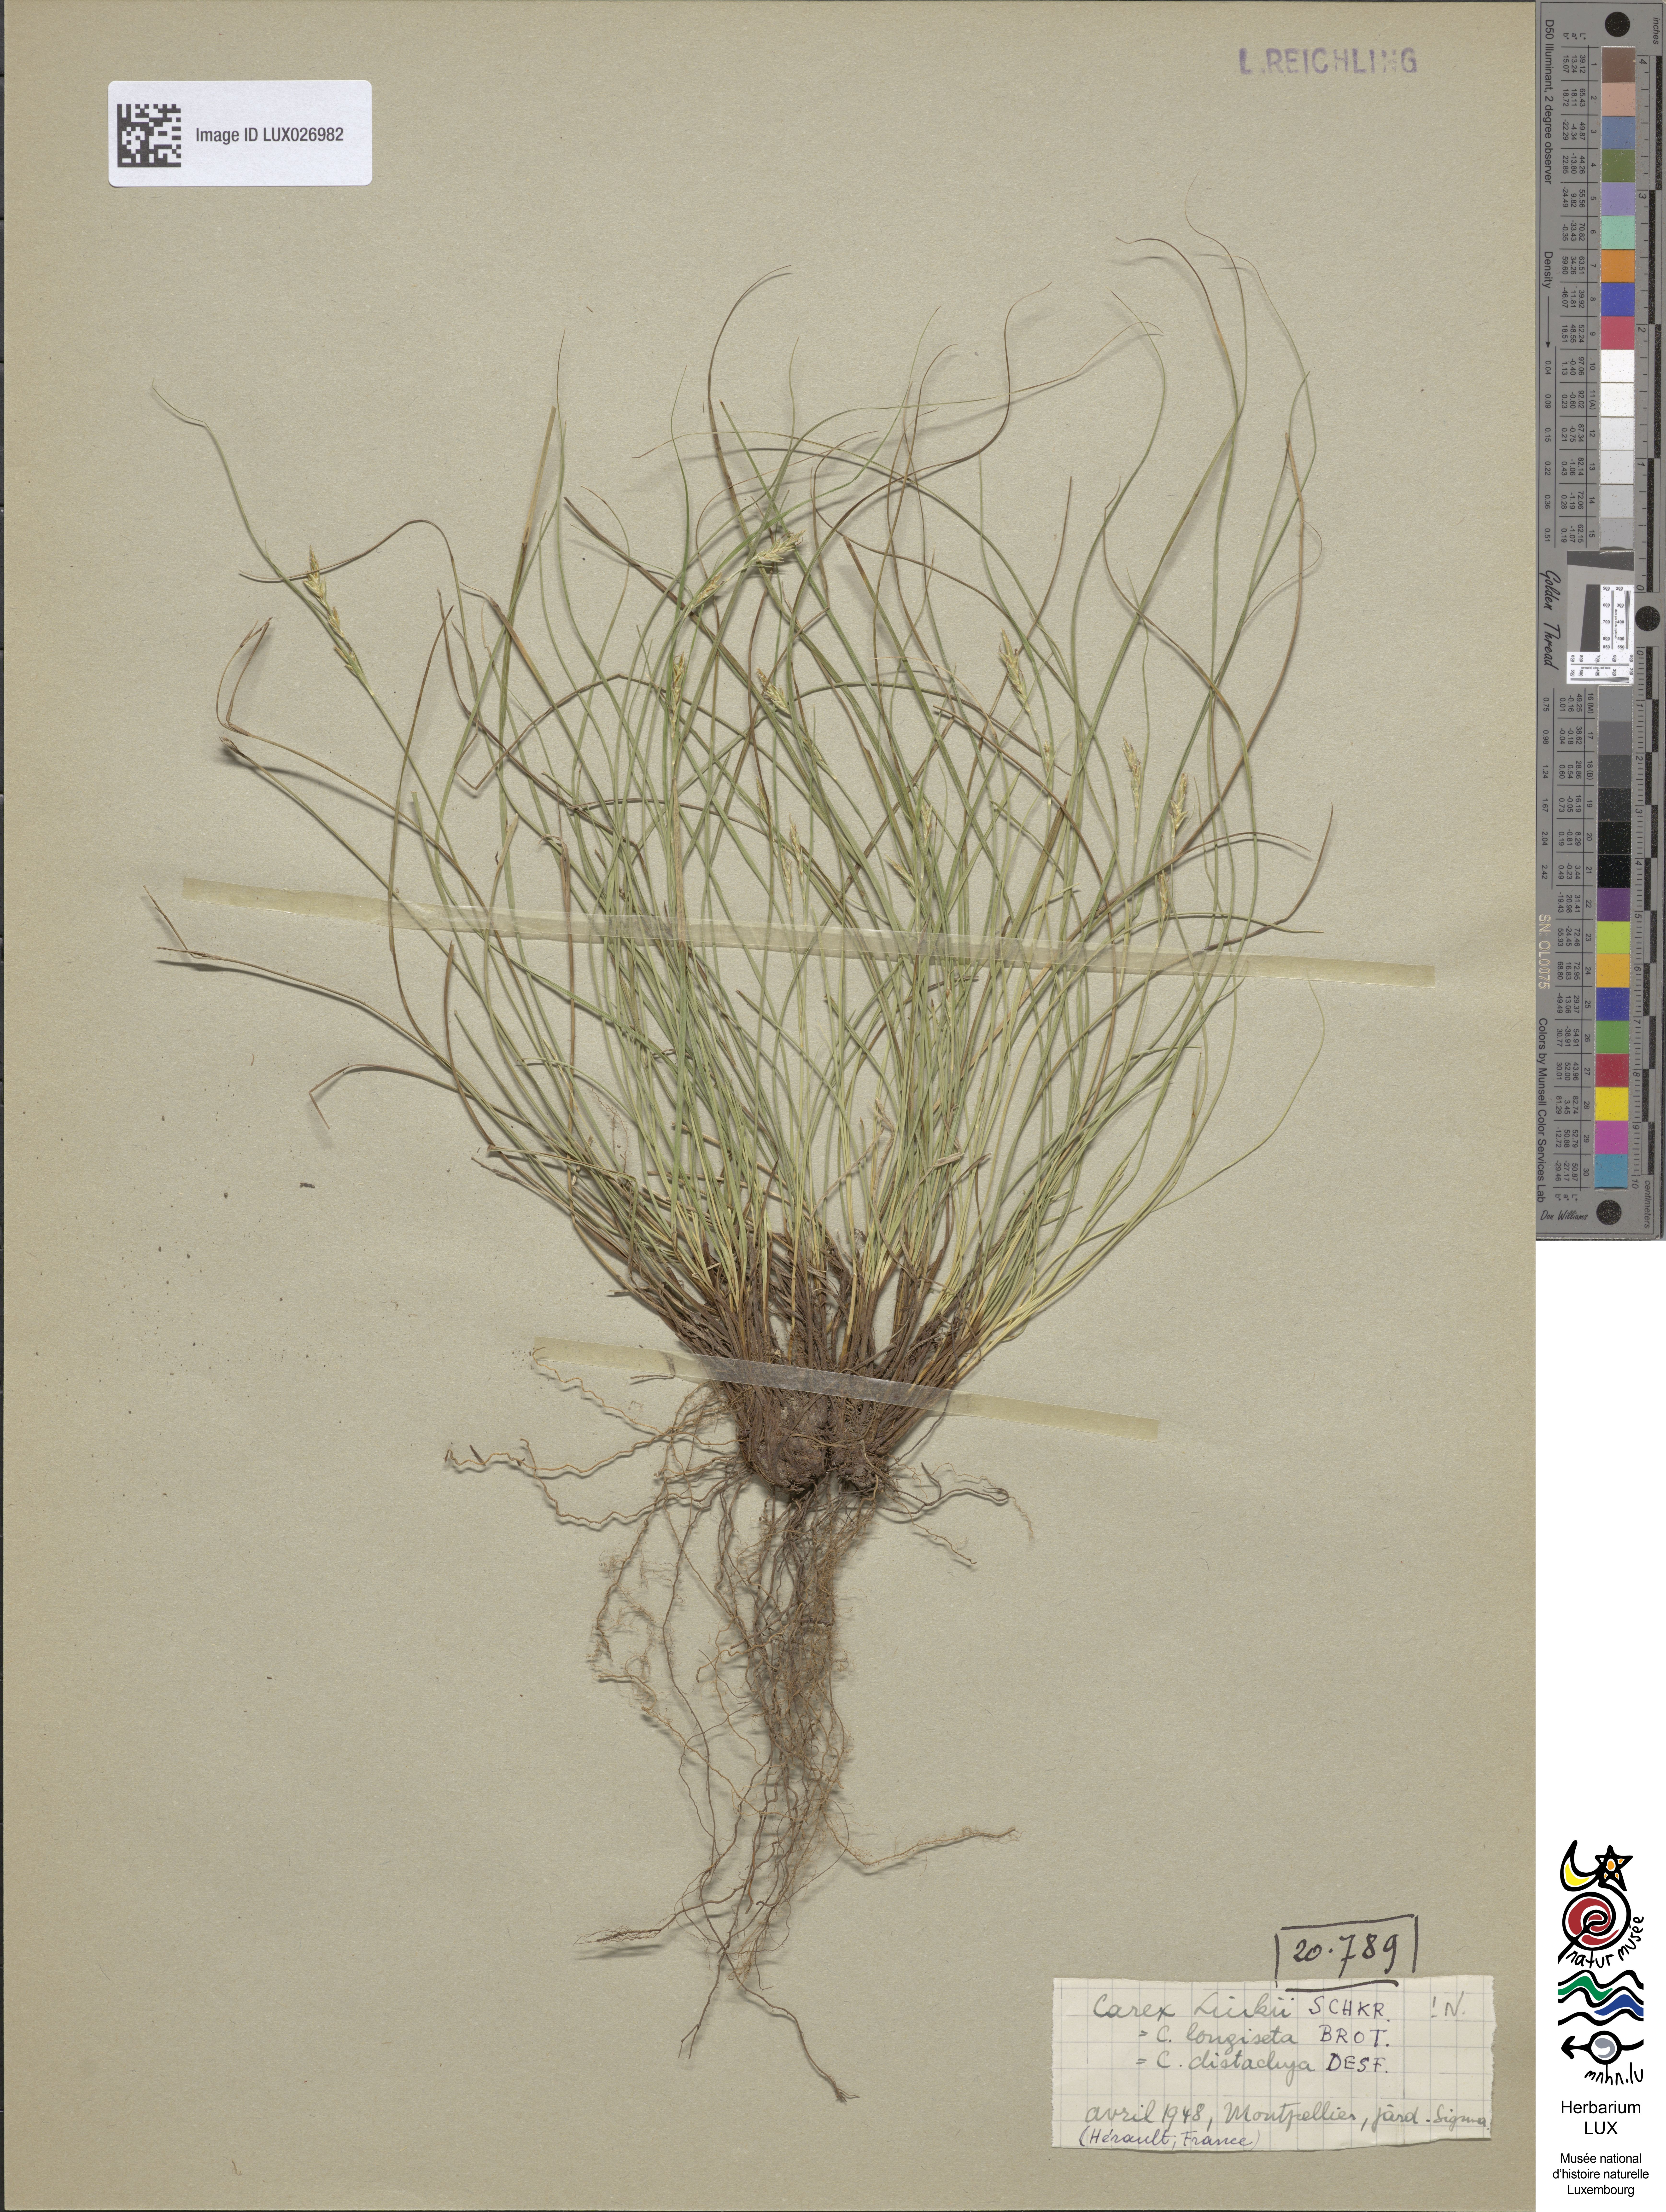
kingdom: Plantae
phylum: Tracheophyta
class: Liliopsida
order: Poales
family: Cyperaceae
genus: Carex
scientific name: Carex distachya
